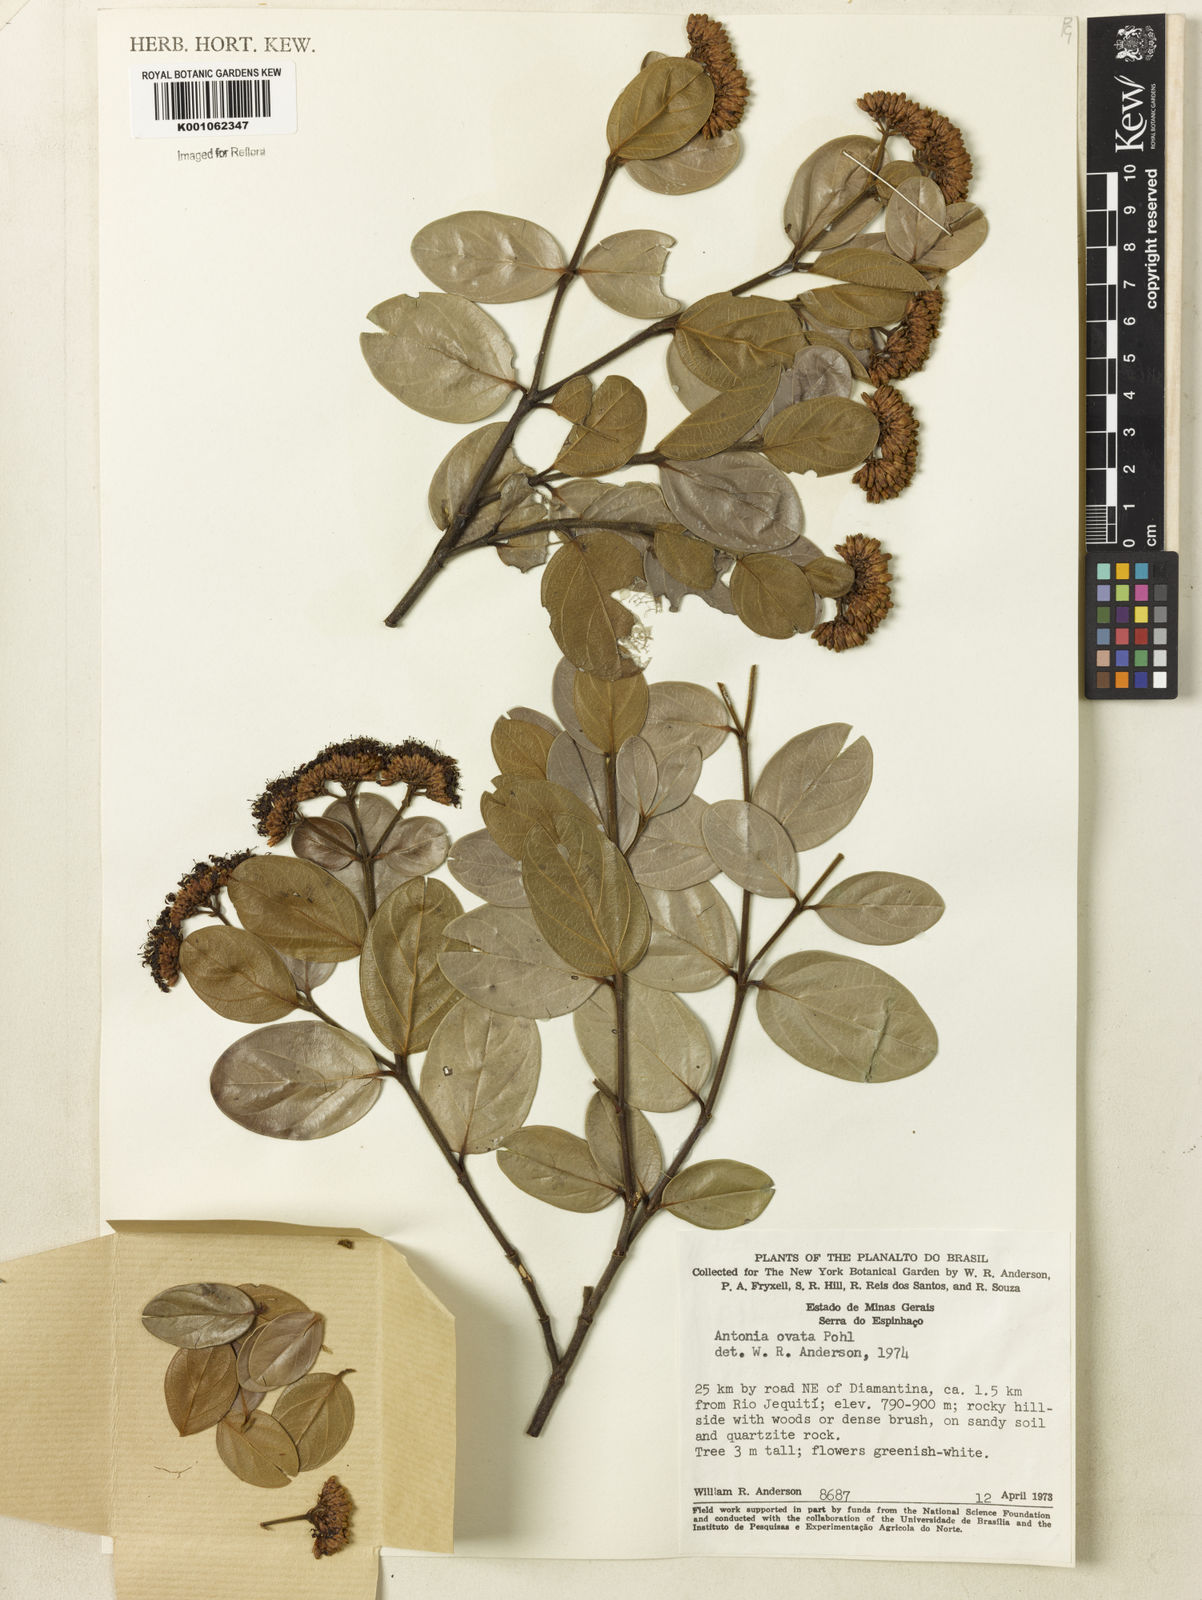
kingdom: Plantae
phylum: Tracheophyta
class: Magnoliopsida
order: Gentianales
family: Loganiaceae
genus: Antonia
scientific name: Antonia ovata
